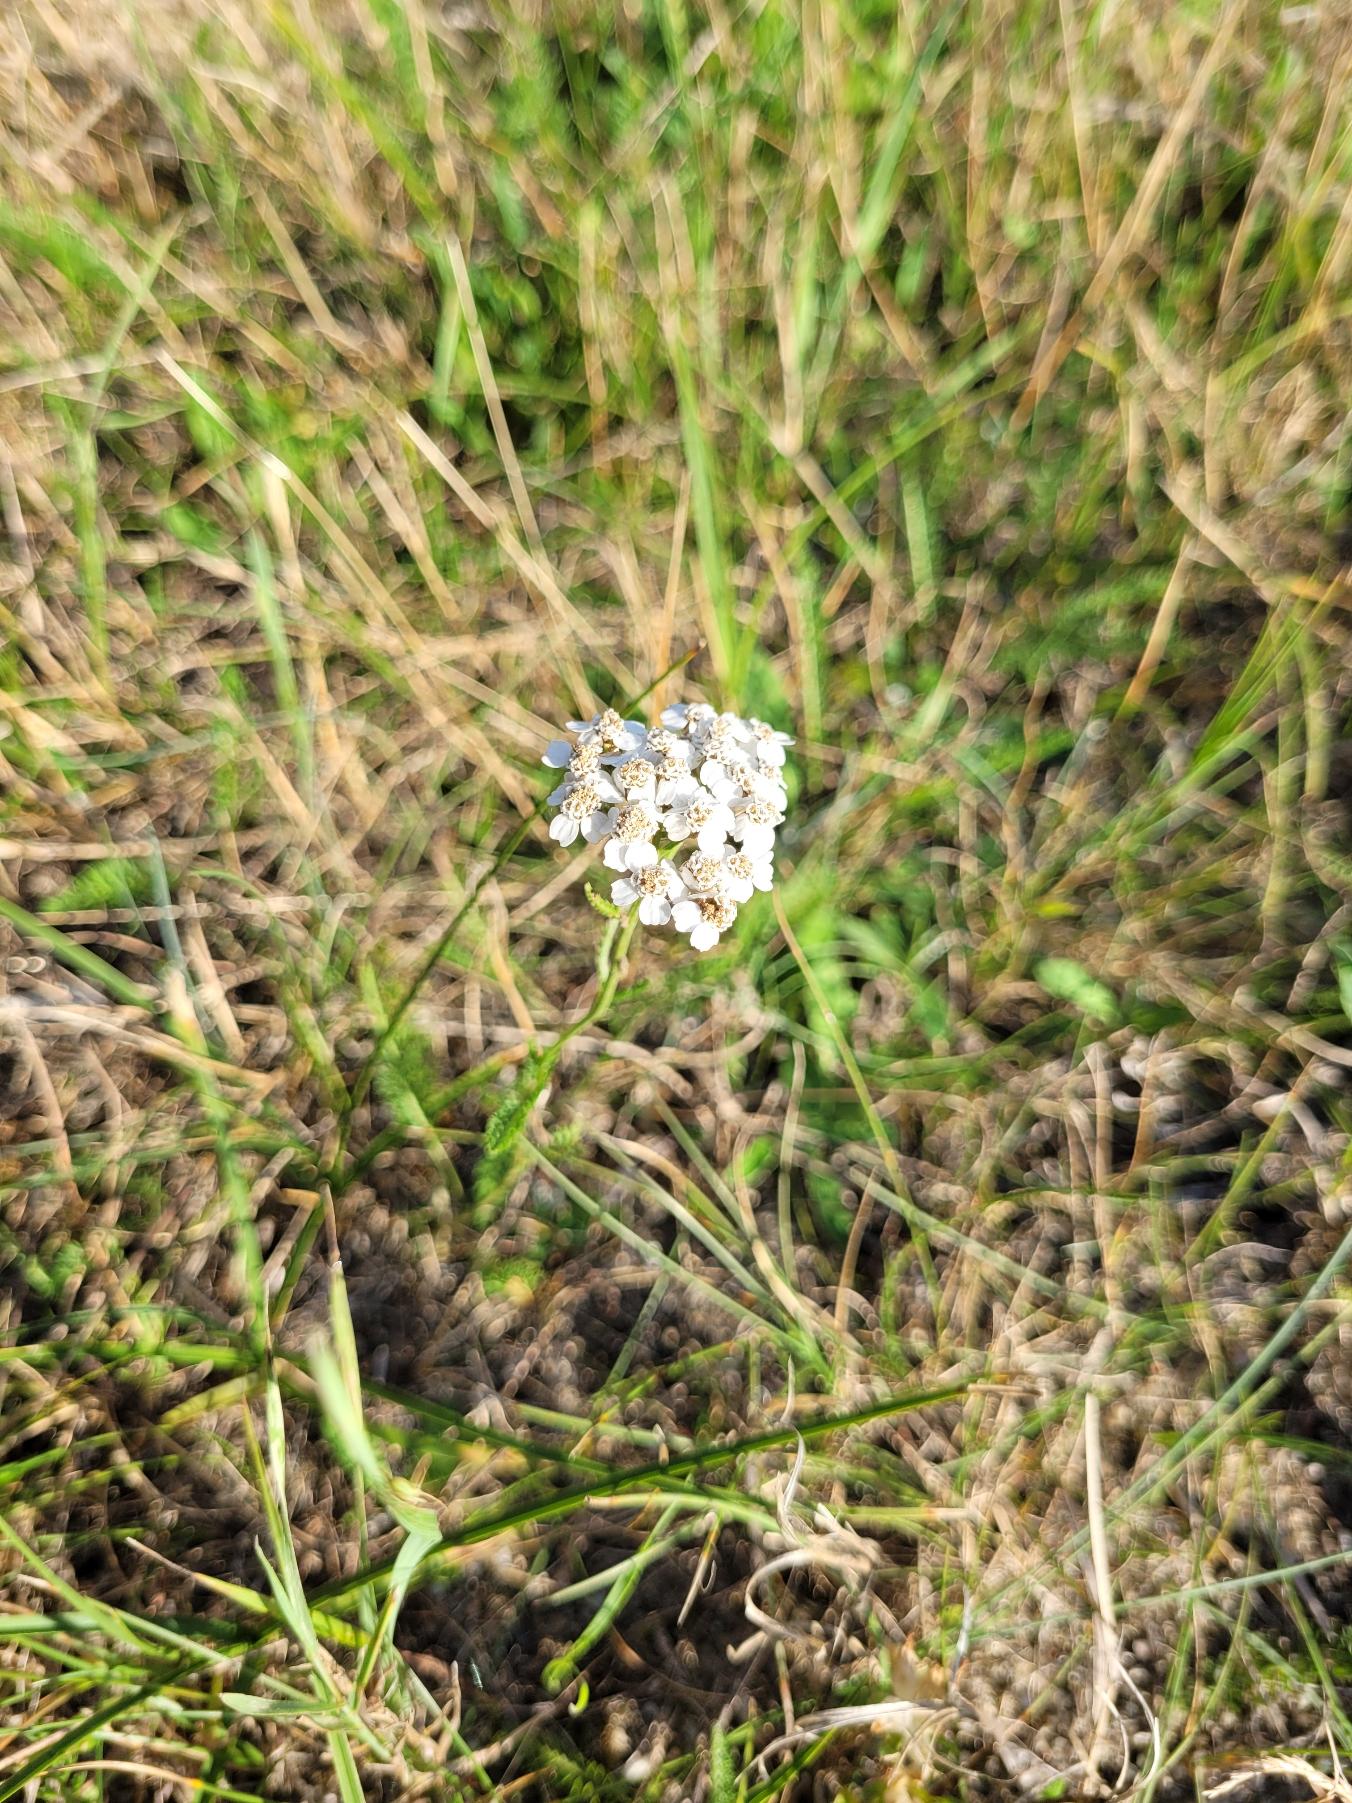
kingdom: Plantae
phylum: Tracheophyta
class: Magnoliopsida
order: Asterales
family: Asteraceae
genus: Achillea
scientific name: Achillea millefolium
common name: Almindelig røllike
